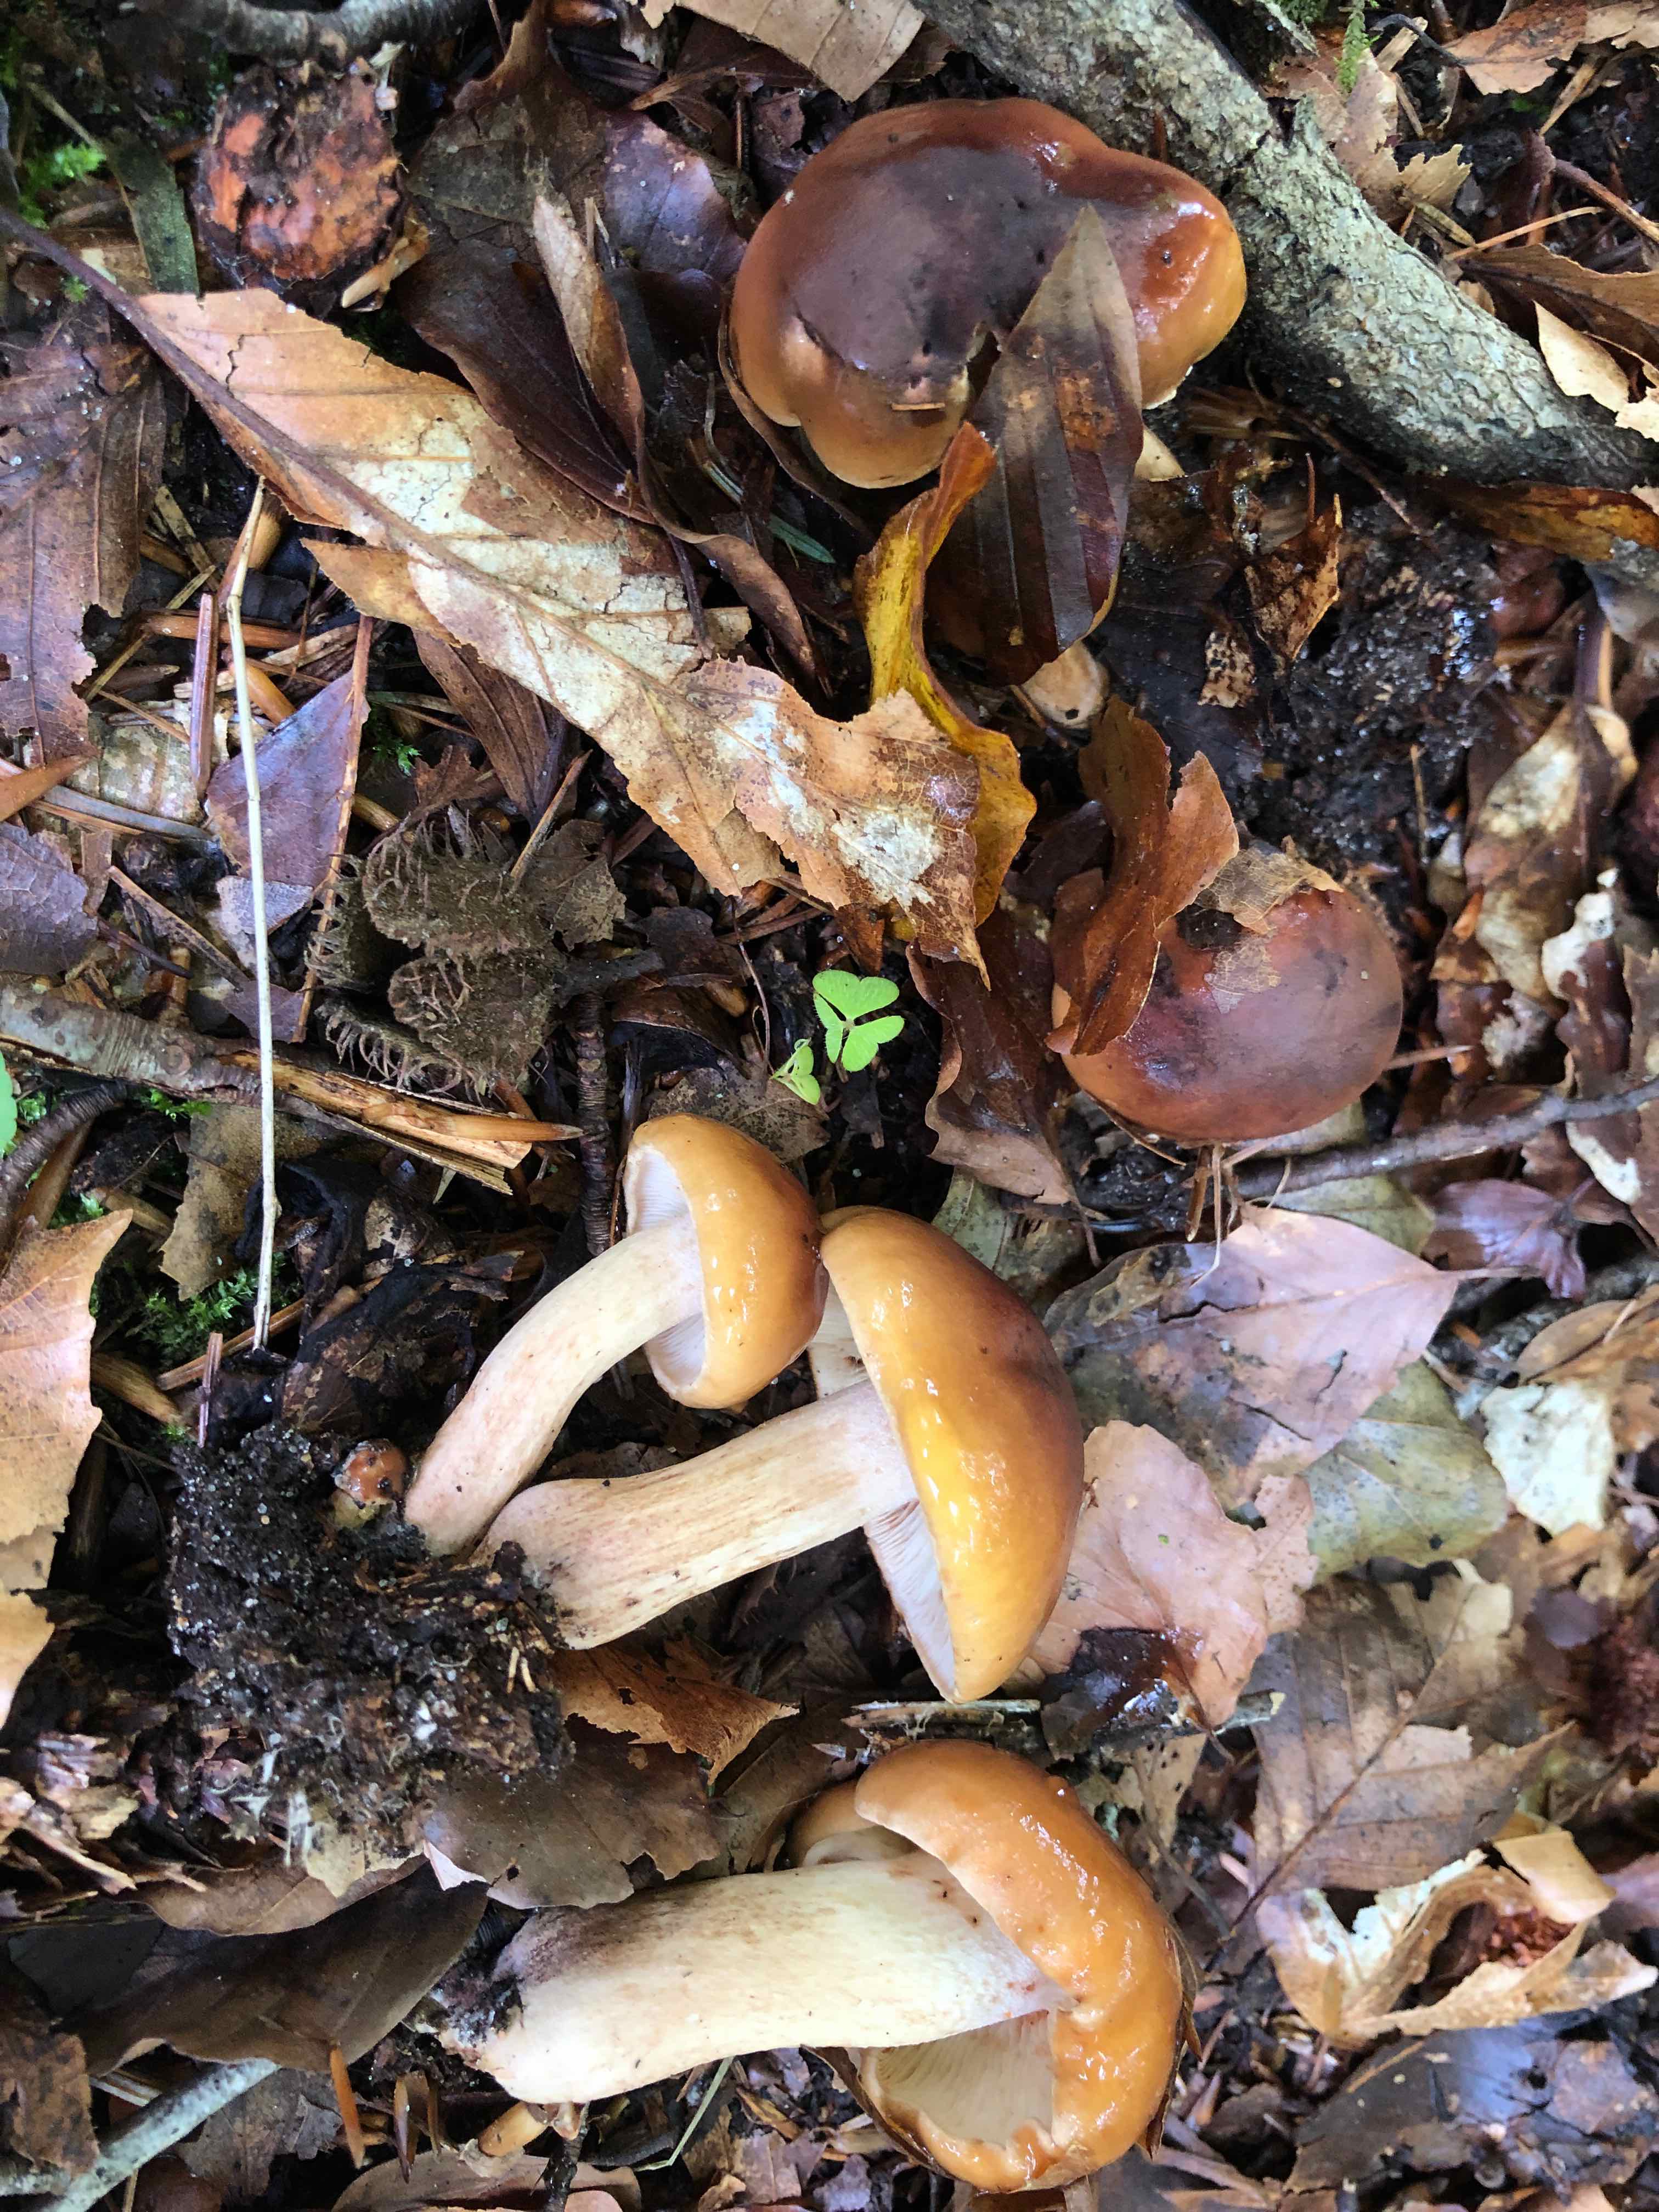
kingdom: Fungi
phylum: Basidiomycota
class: Agaricomycetes
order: Agaricales
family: Tricholomataceae
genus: Tricholoma
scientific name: Tricholoma ustale
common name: sveden ridderhat
